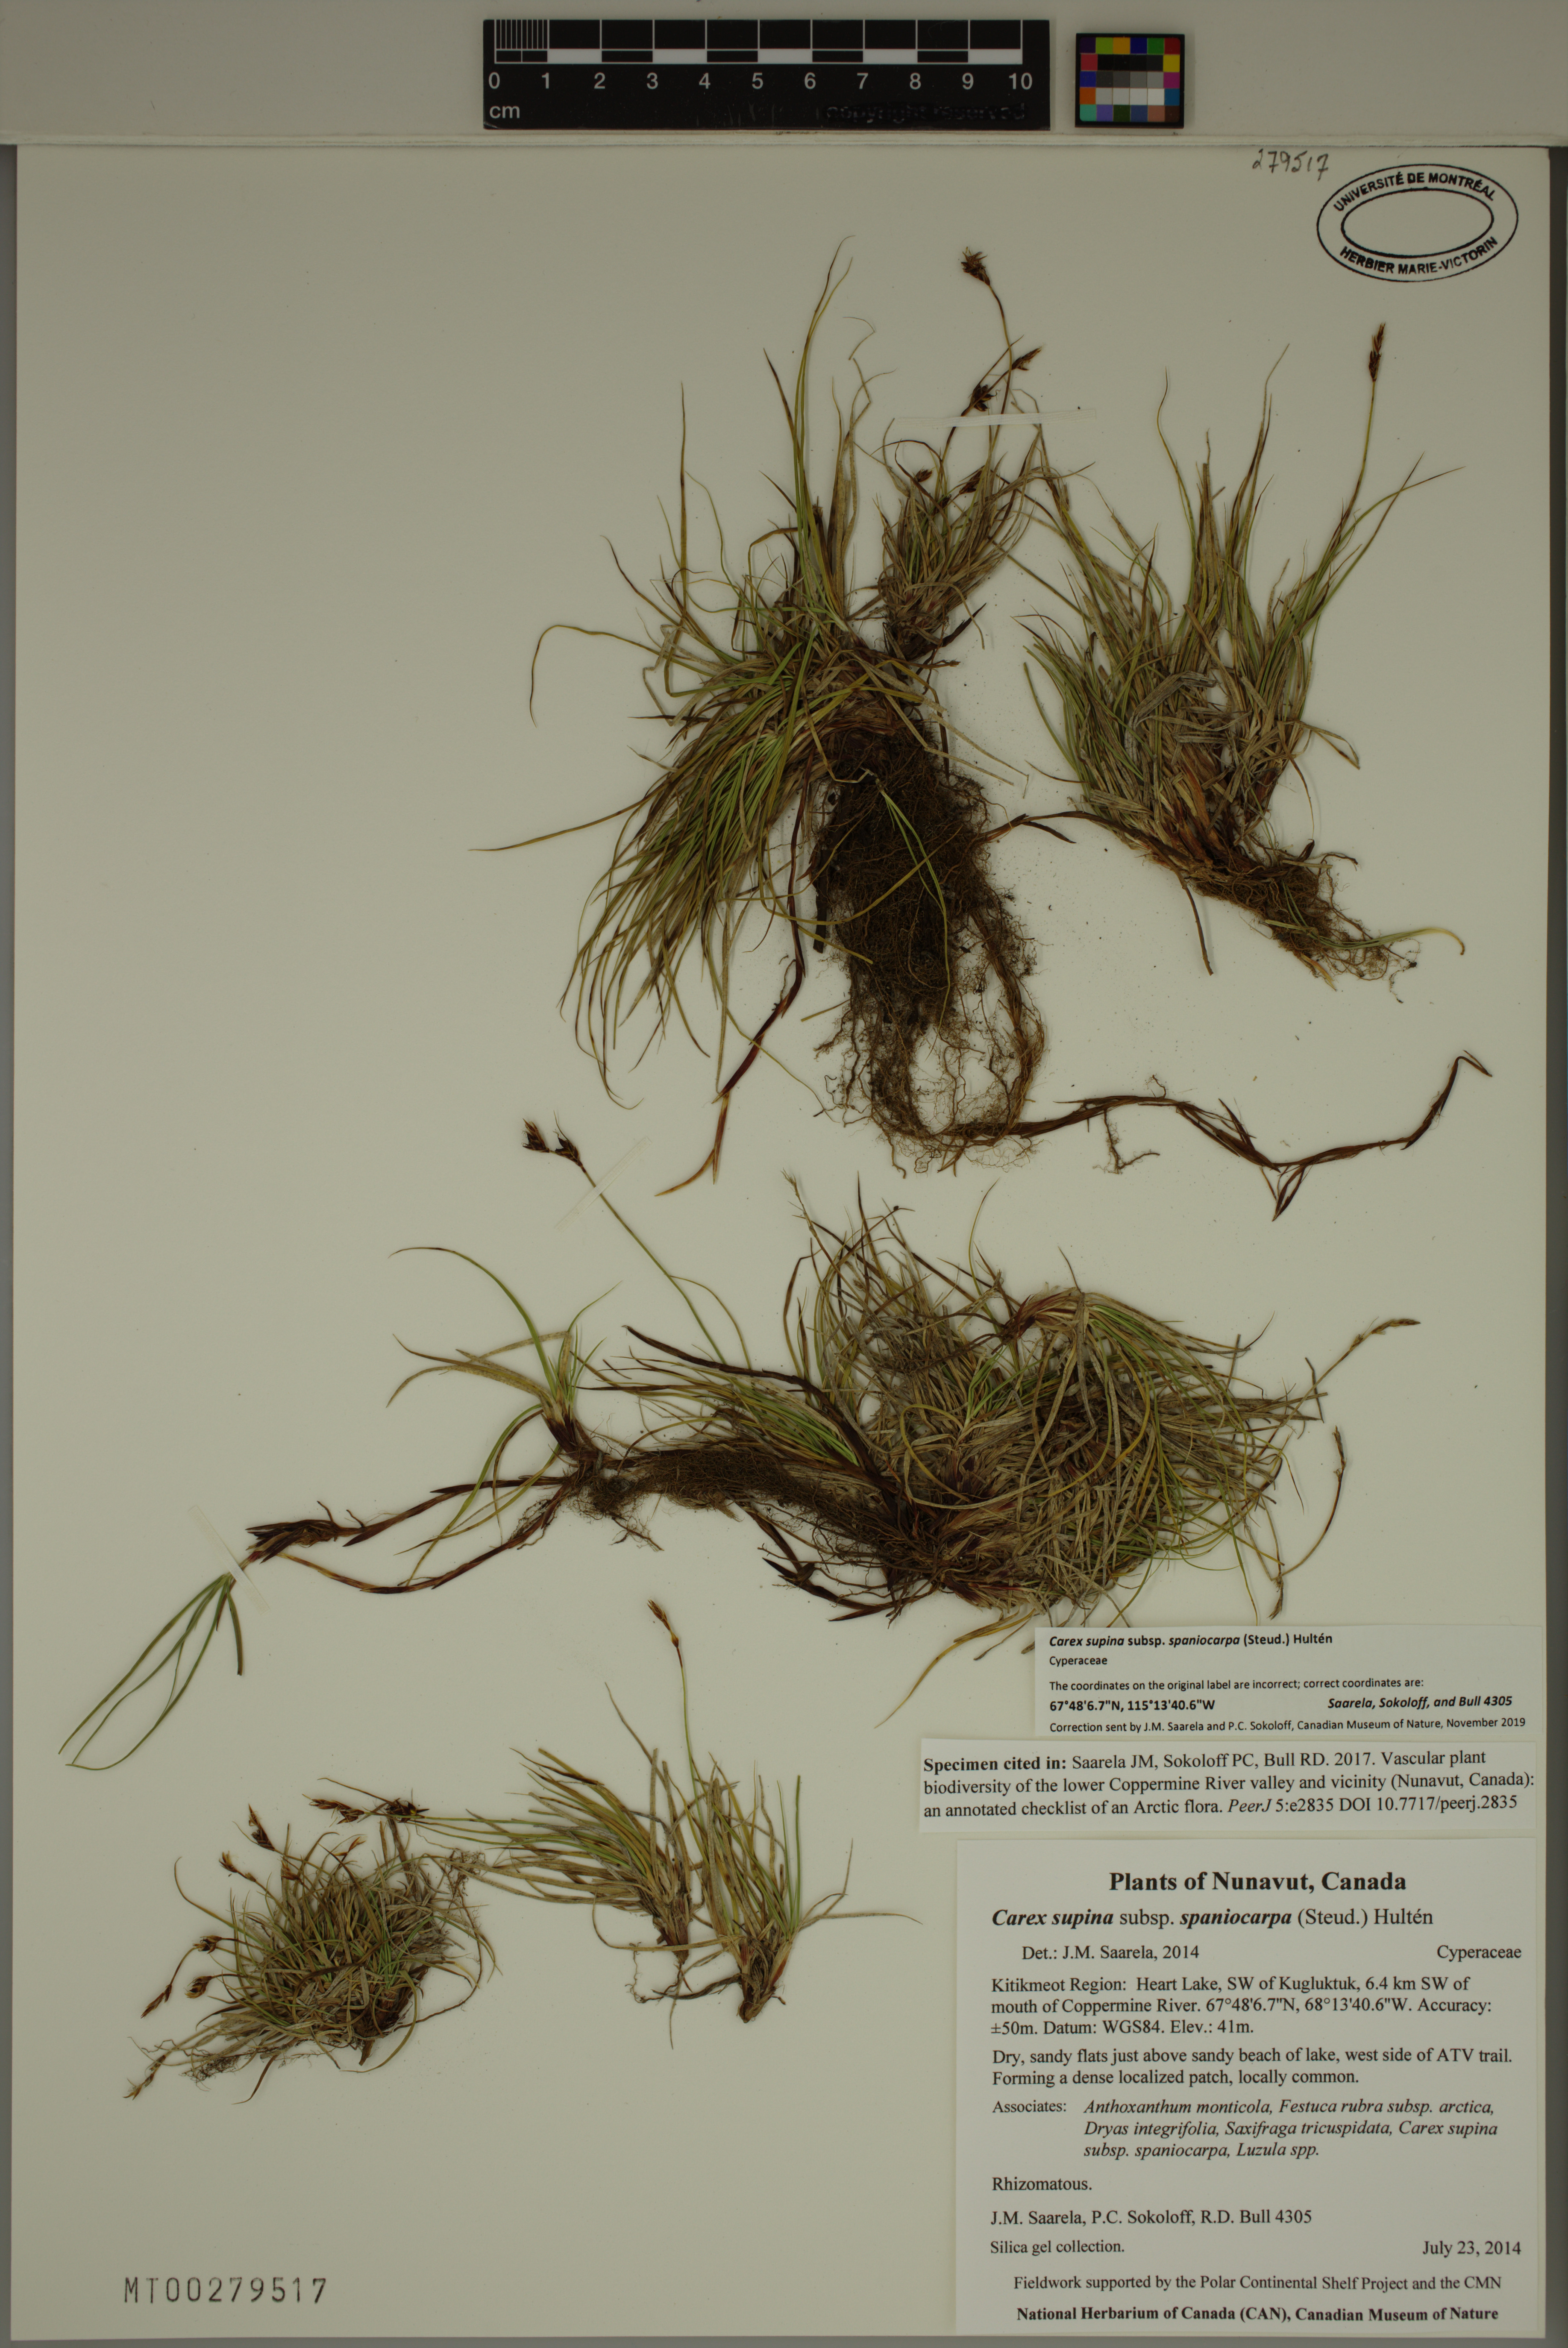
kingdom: Plantae
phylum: Tracheophyta
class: Liliopsida
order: Poales
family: Cyperaceae
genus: Carex
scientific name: Carex supina
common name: Lying-back sedge
